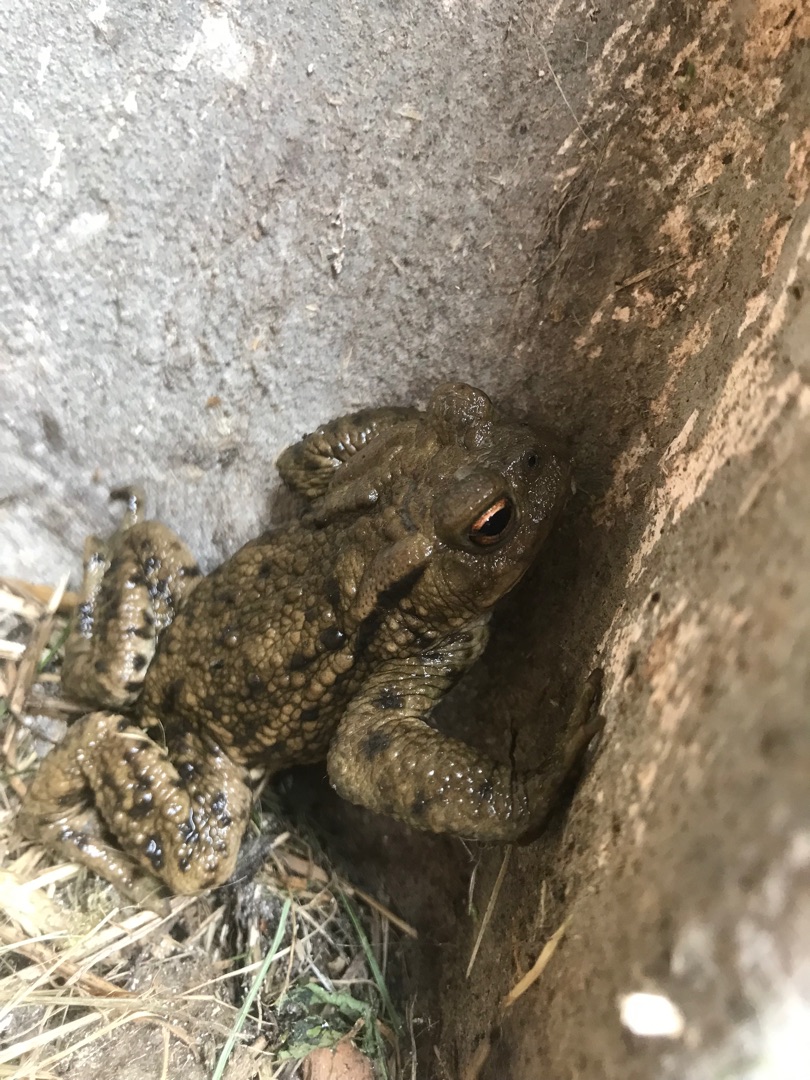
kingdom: Animalia
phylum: Chordata
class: Amphibia
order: Anura
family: Bufonidae
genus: Bufo
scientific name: Bufo bufo
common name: Skrubtudse
